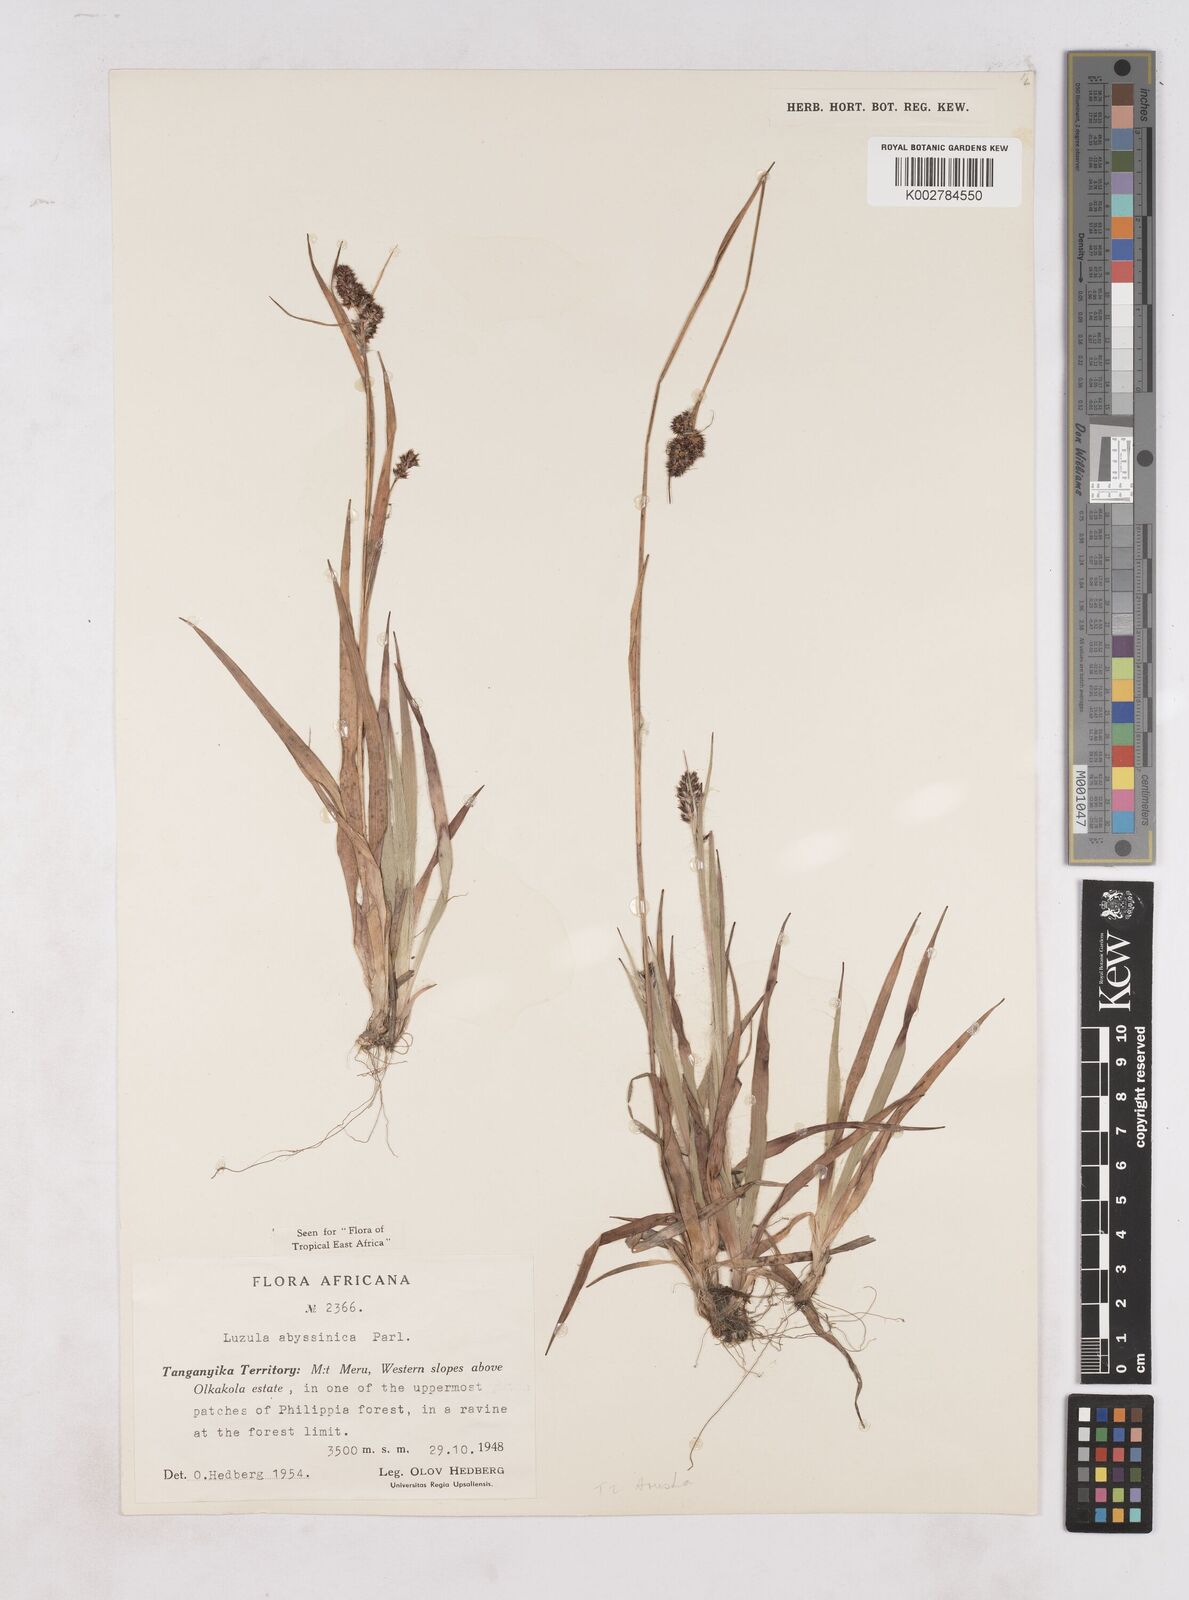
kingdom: Plantae
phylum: Tracheophyta
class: Liliopsida
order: Poales
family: Juncaceae
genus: Luzula
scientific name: Luzula abyssinica
